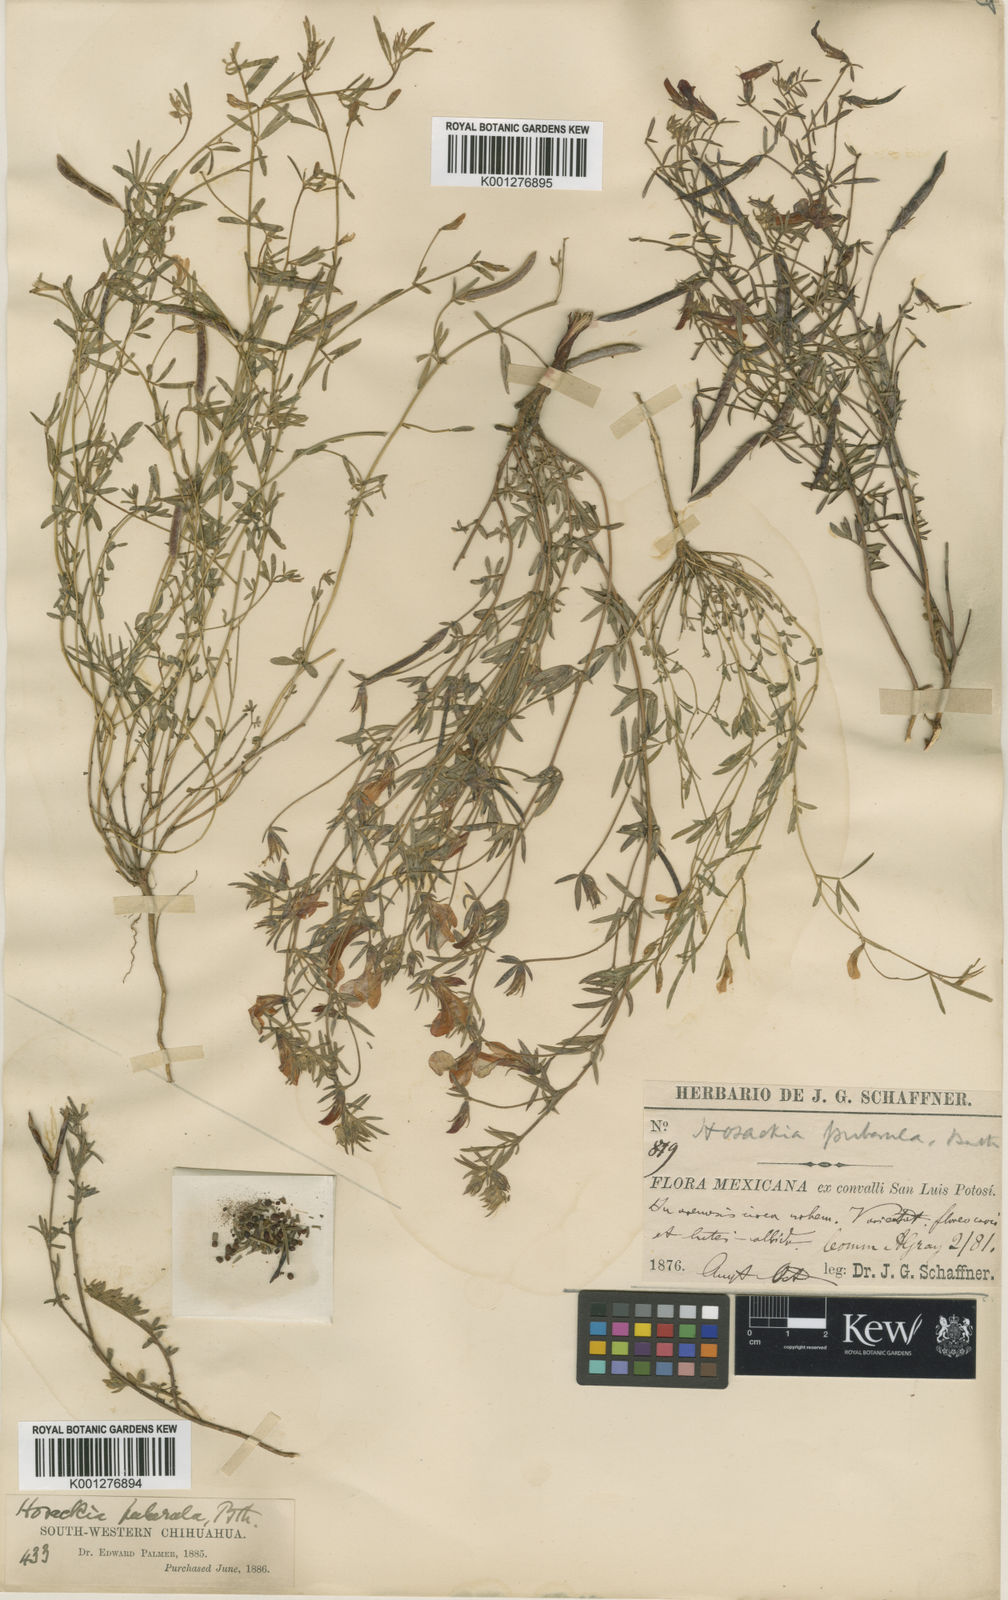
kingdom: Plantae
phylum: Tracheophyta
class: Magnoliopsida
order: Fabales
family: Fabaceae
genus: Acmispon
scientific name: Acmispon oroboides
